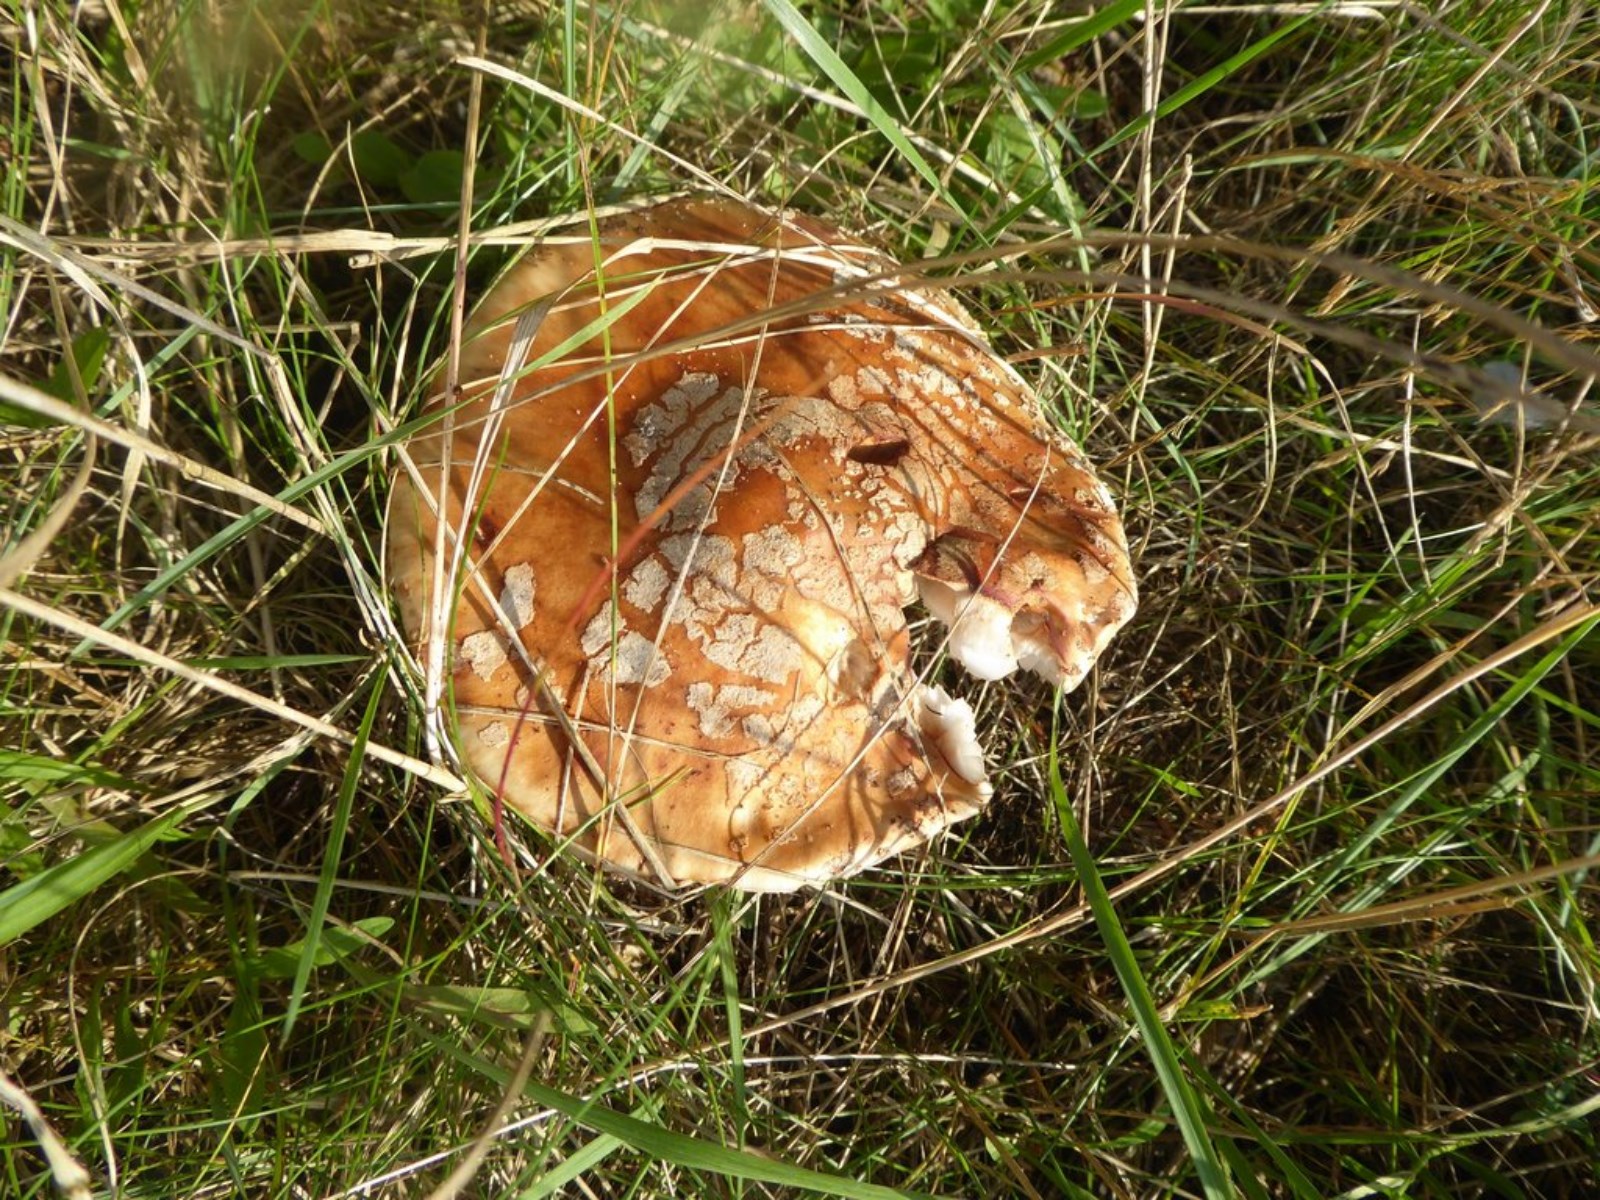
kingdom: Fungi
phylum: Basidiomycota
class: Agaricomycetes
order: Agaricales
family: Amanitaceae
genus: Amanita
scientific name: Amanita rubescens
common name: rødmende fluesvamp
